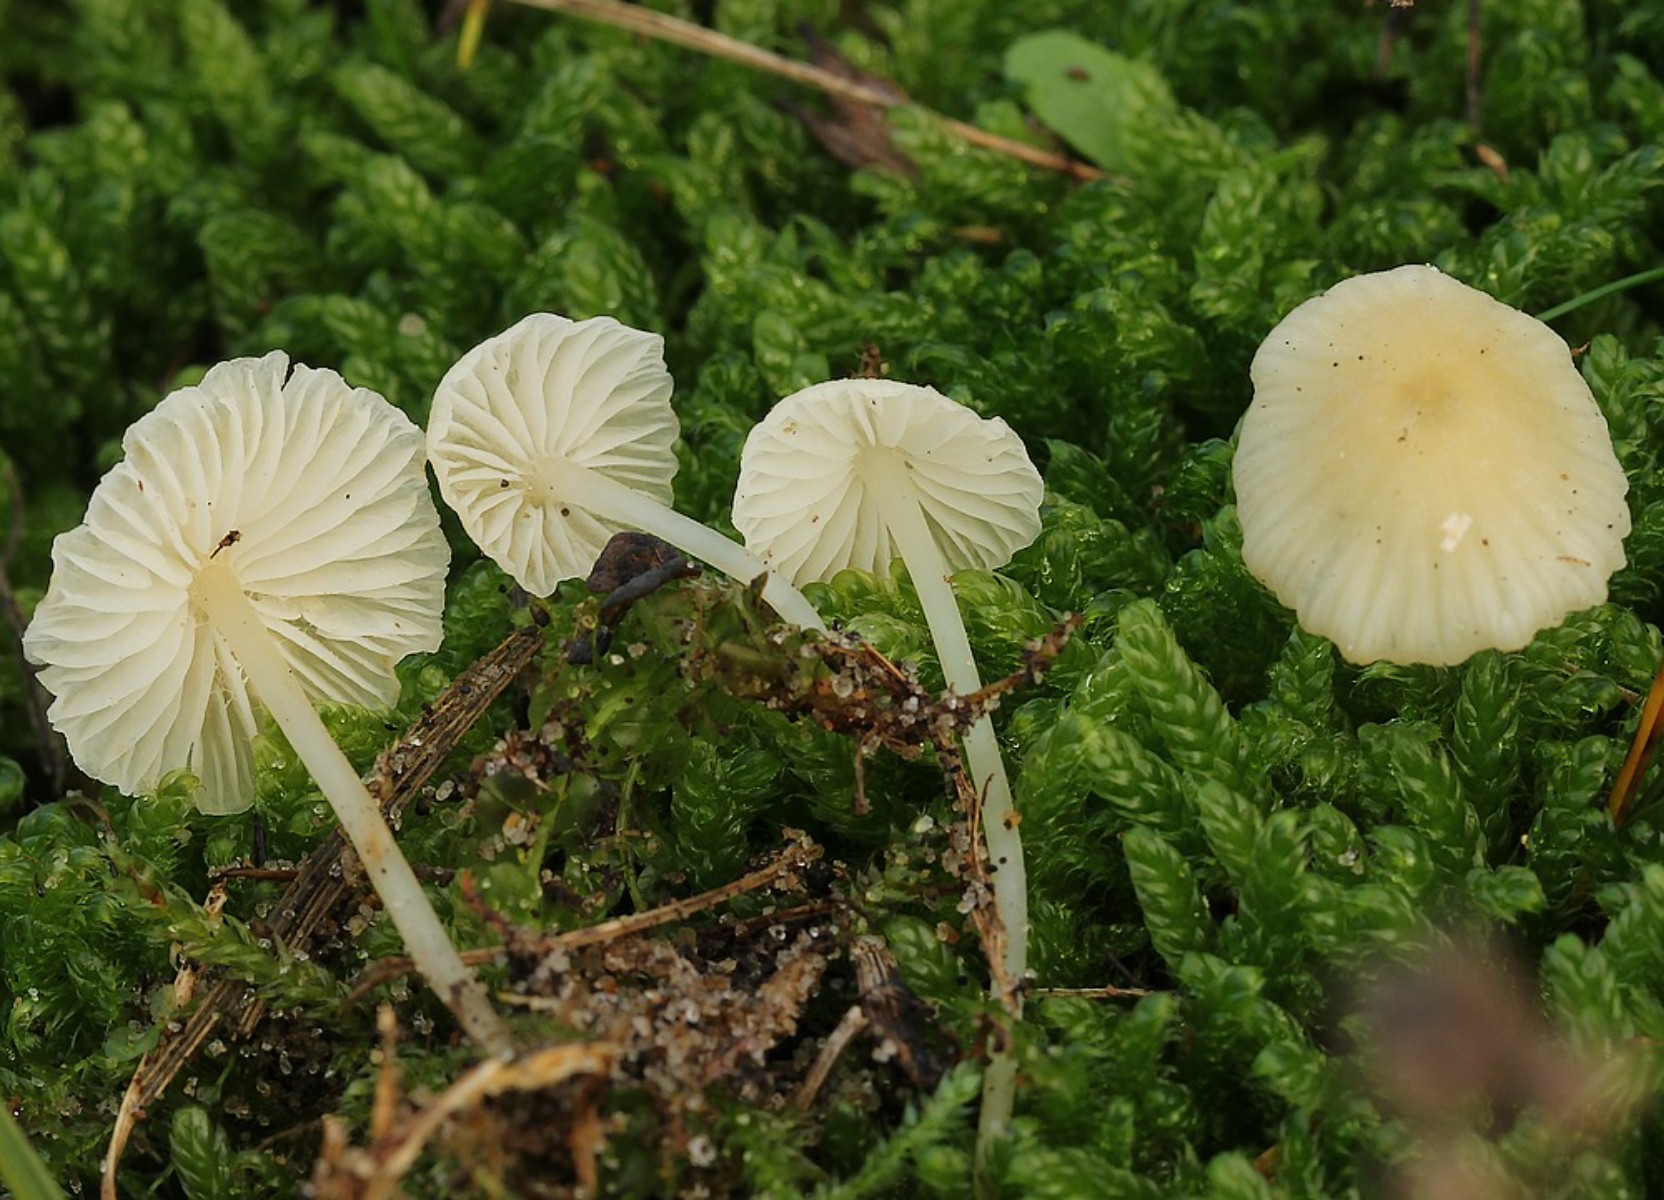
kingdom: Fungi
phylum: Basidiomycota
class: Agaricomycetes
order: Agaricales
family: Mycenaceae
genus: Atheniella
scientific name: Atheniella flavoalba
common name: gulhvid huesvamp
